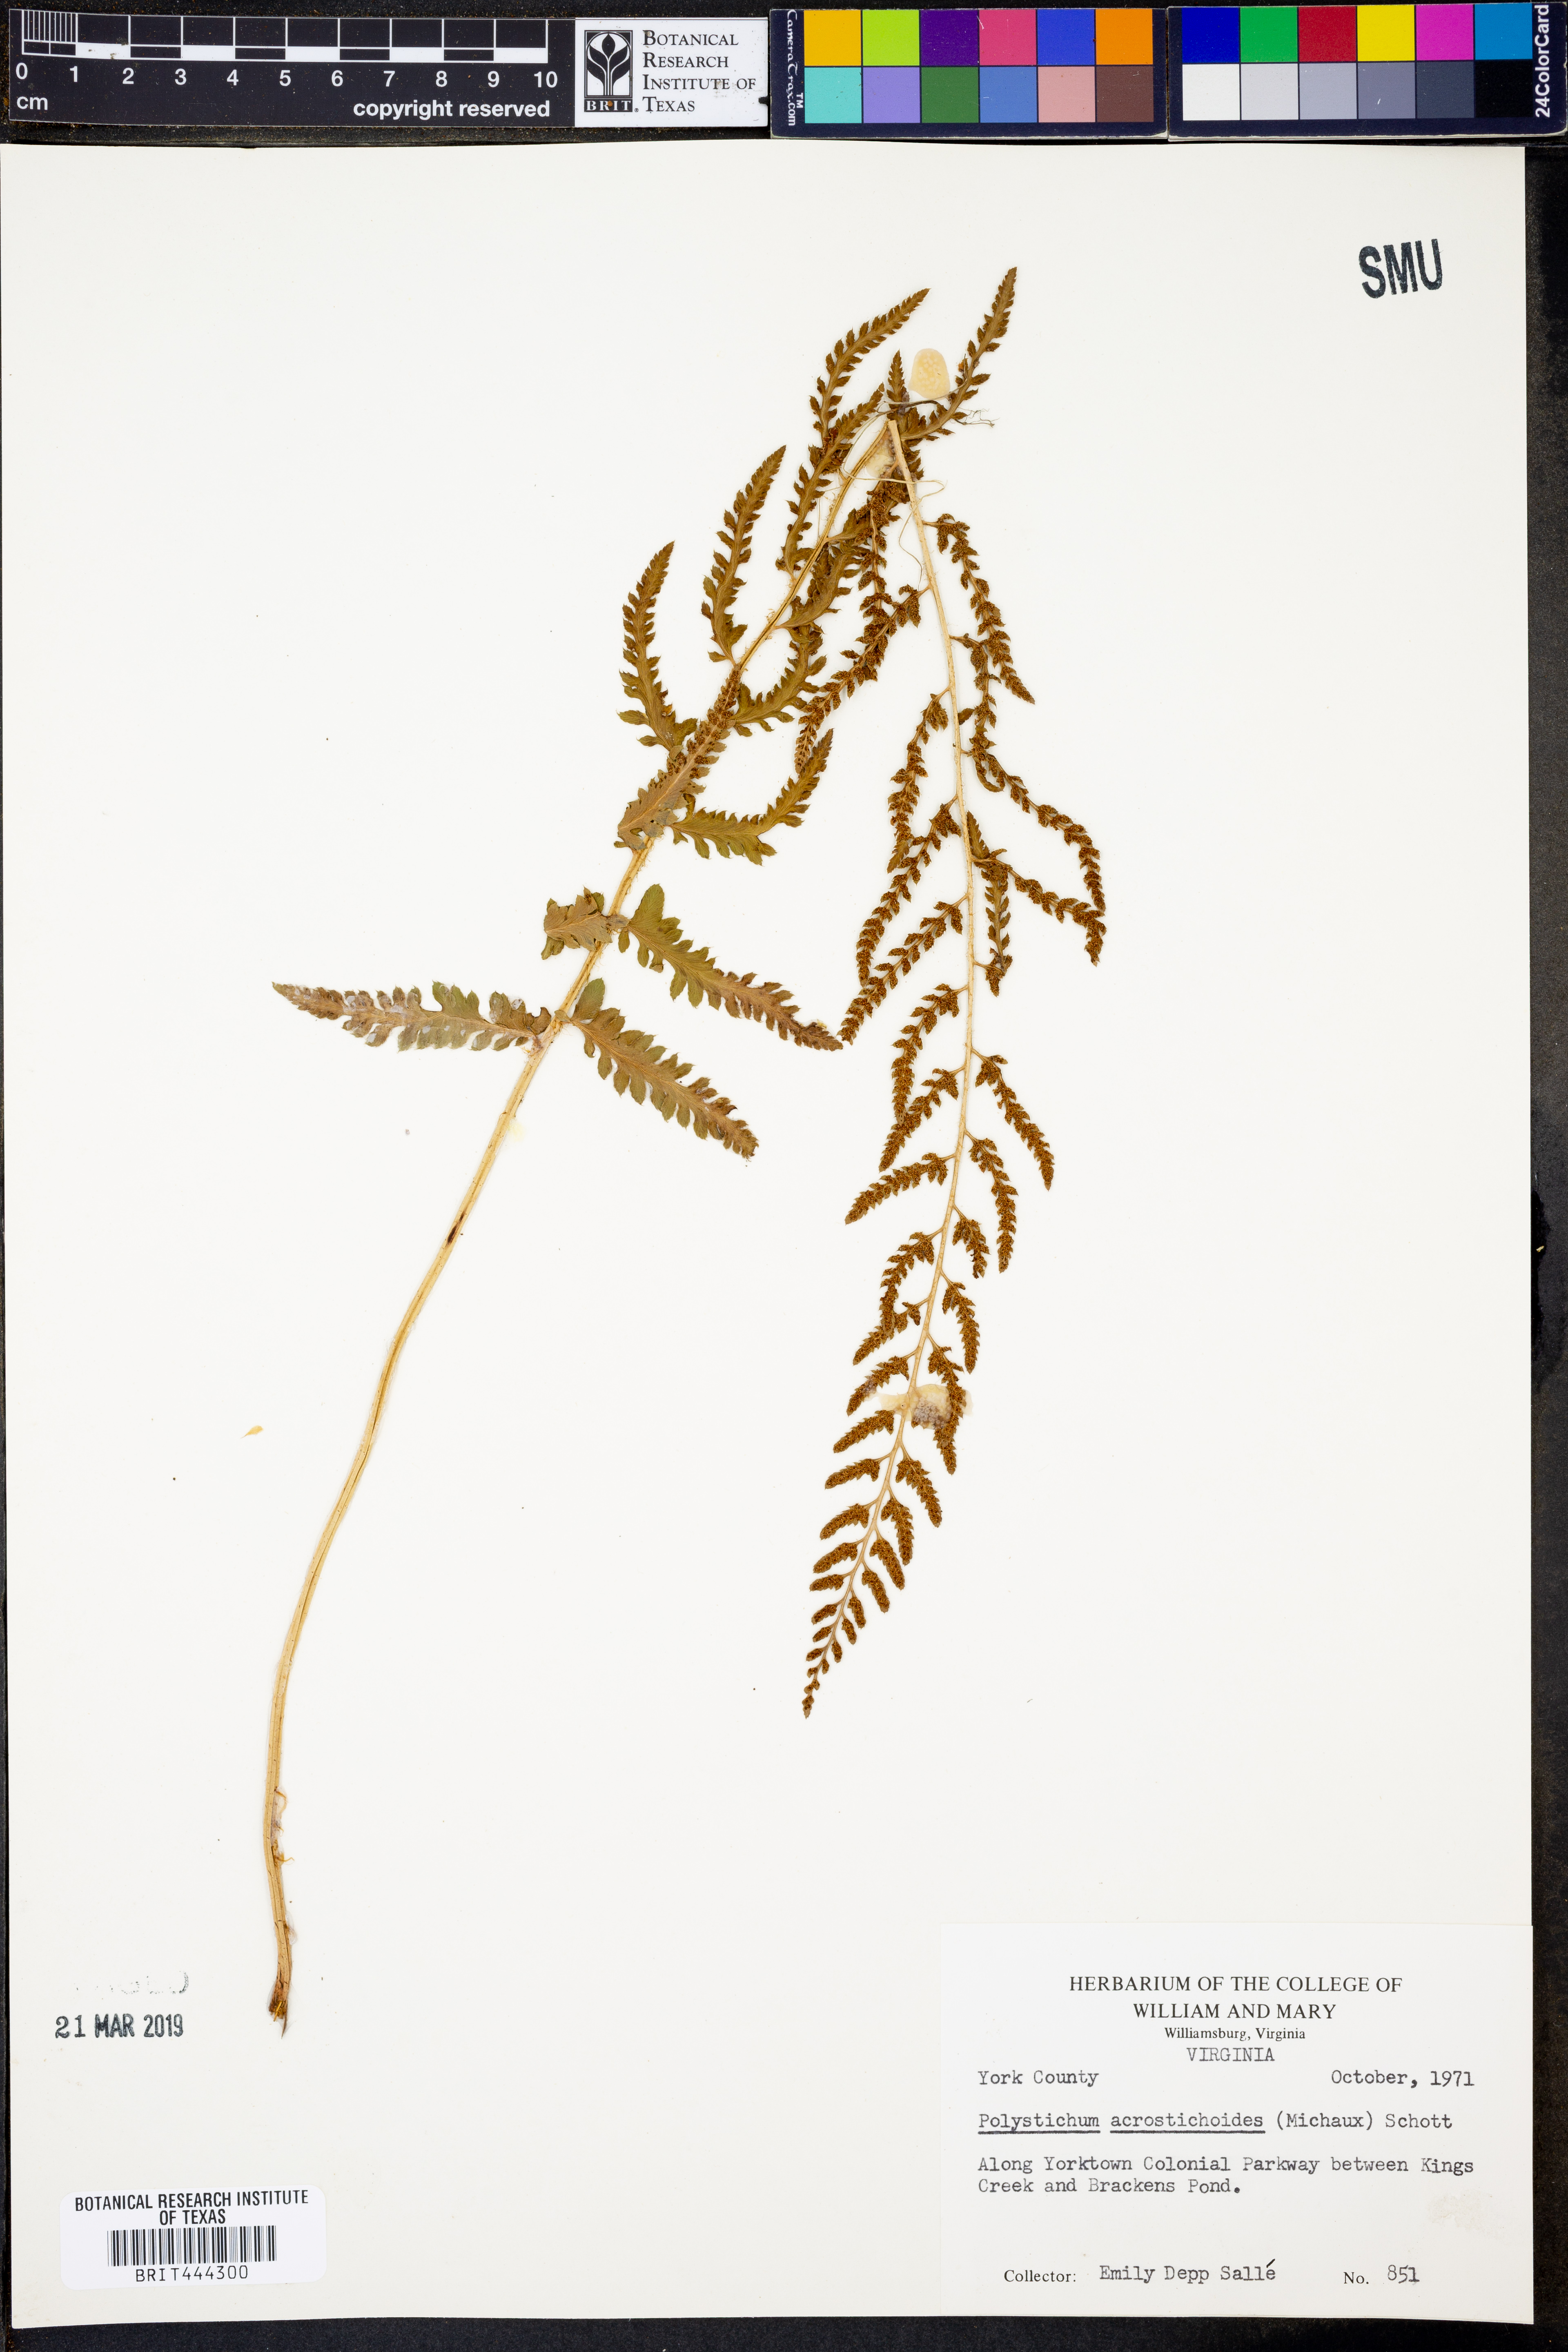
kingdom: Plantae
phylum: Tracheophyta
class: Polypodiopsida
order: Polypodiales
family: Dryopteridaceae
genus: Polystichum
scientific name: Polystichum acrostichoides
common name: Christmas fern
